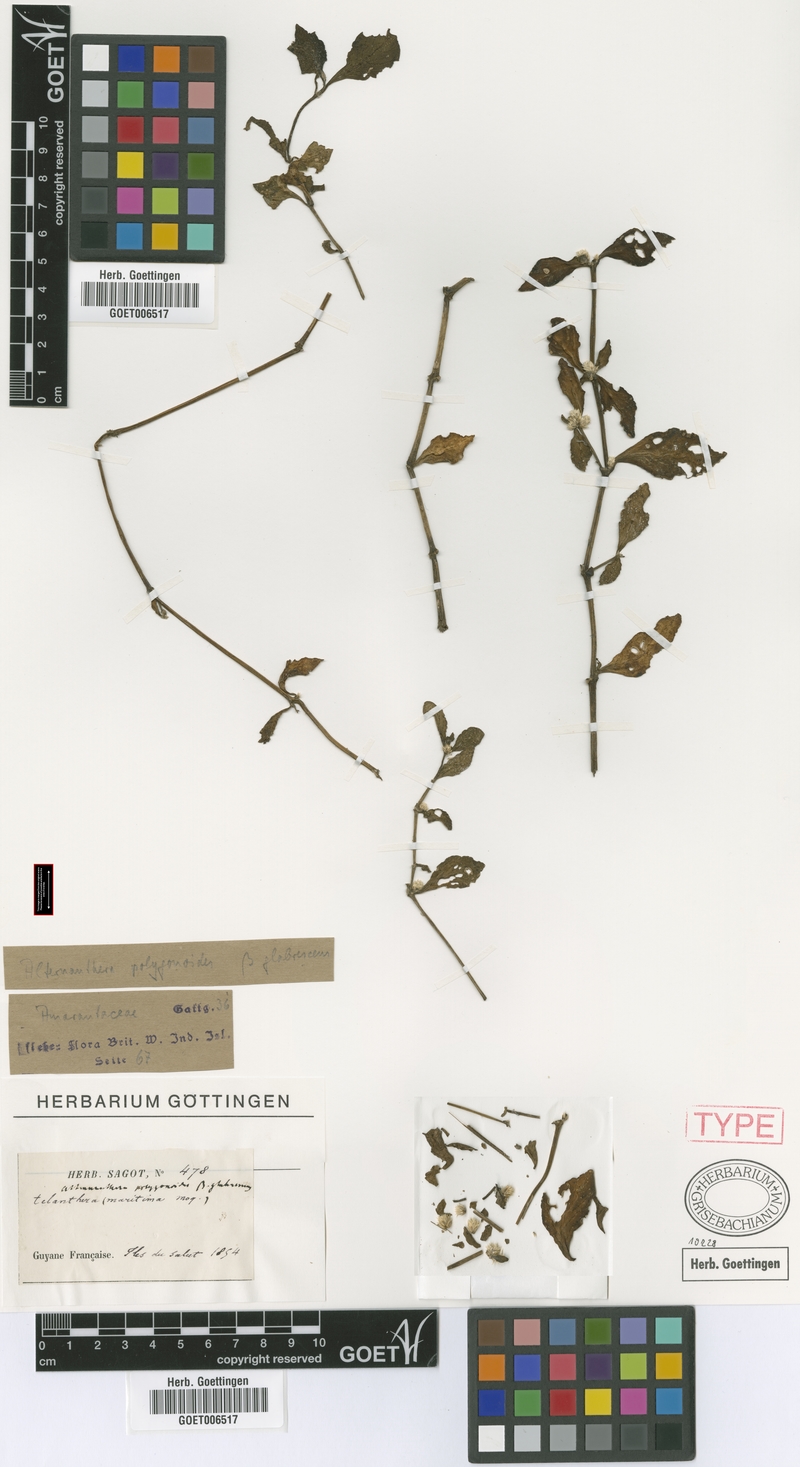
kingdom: Plantae
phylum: Tracheophyta
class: Magnoliopsida
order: Caryophyllales
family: Amaranthaceae
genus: Alternanthera
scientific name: Alternanthera ficoidea
